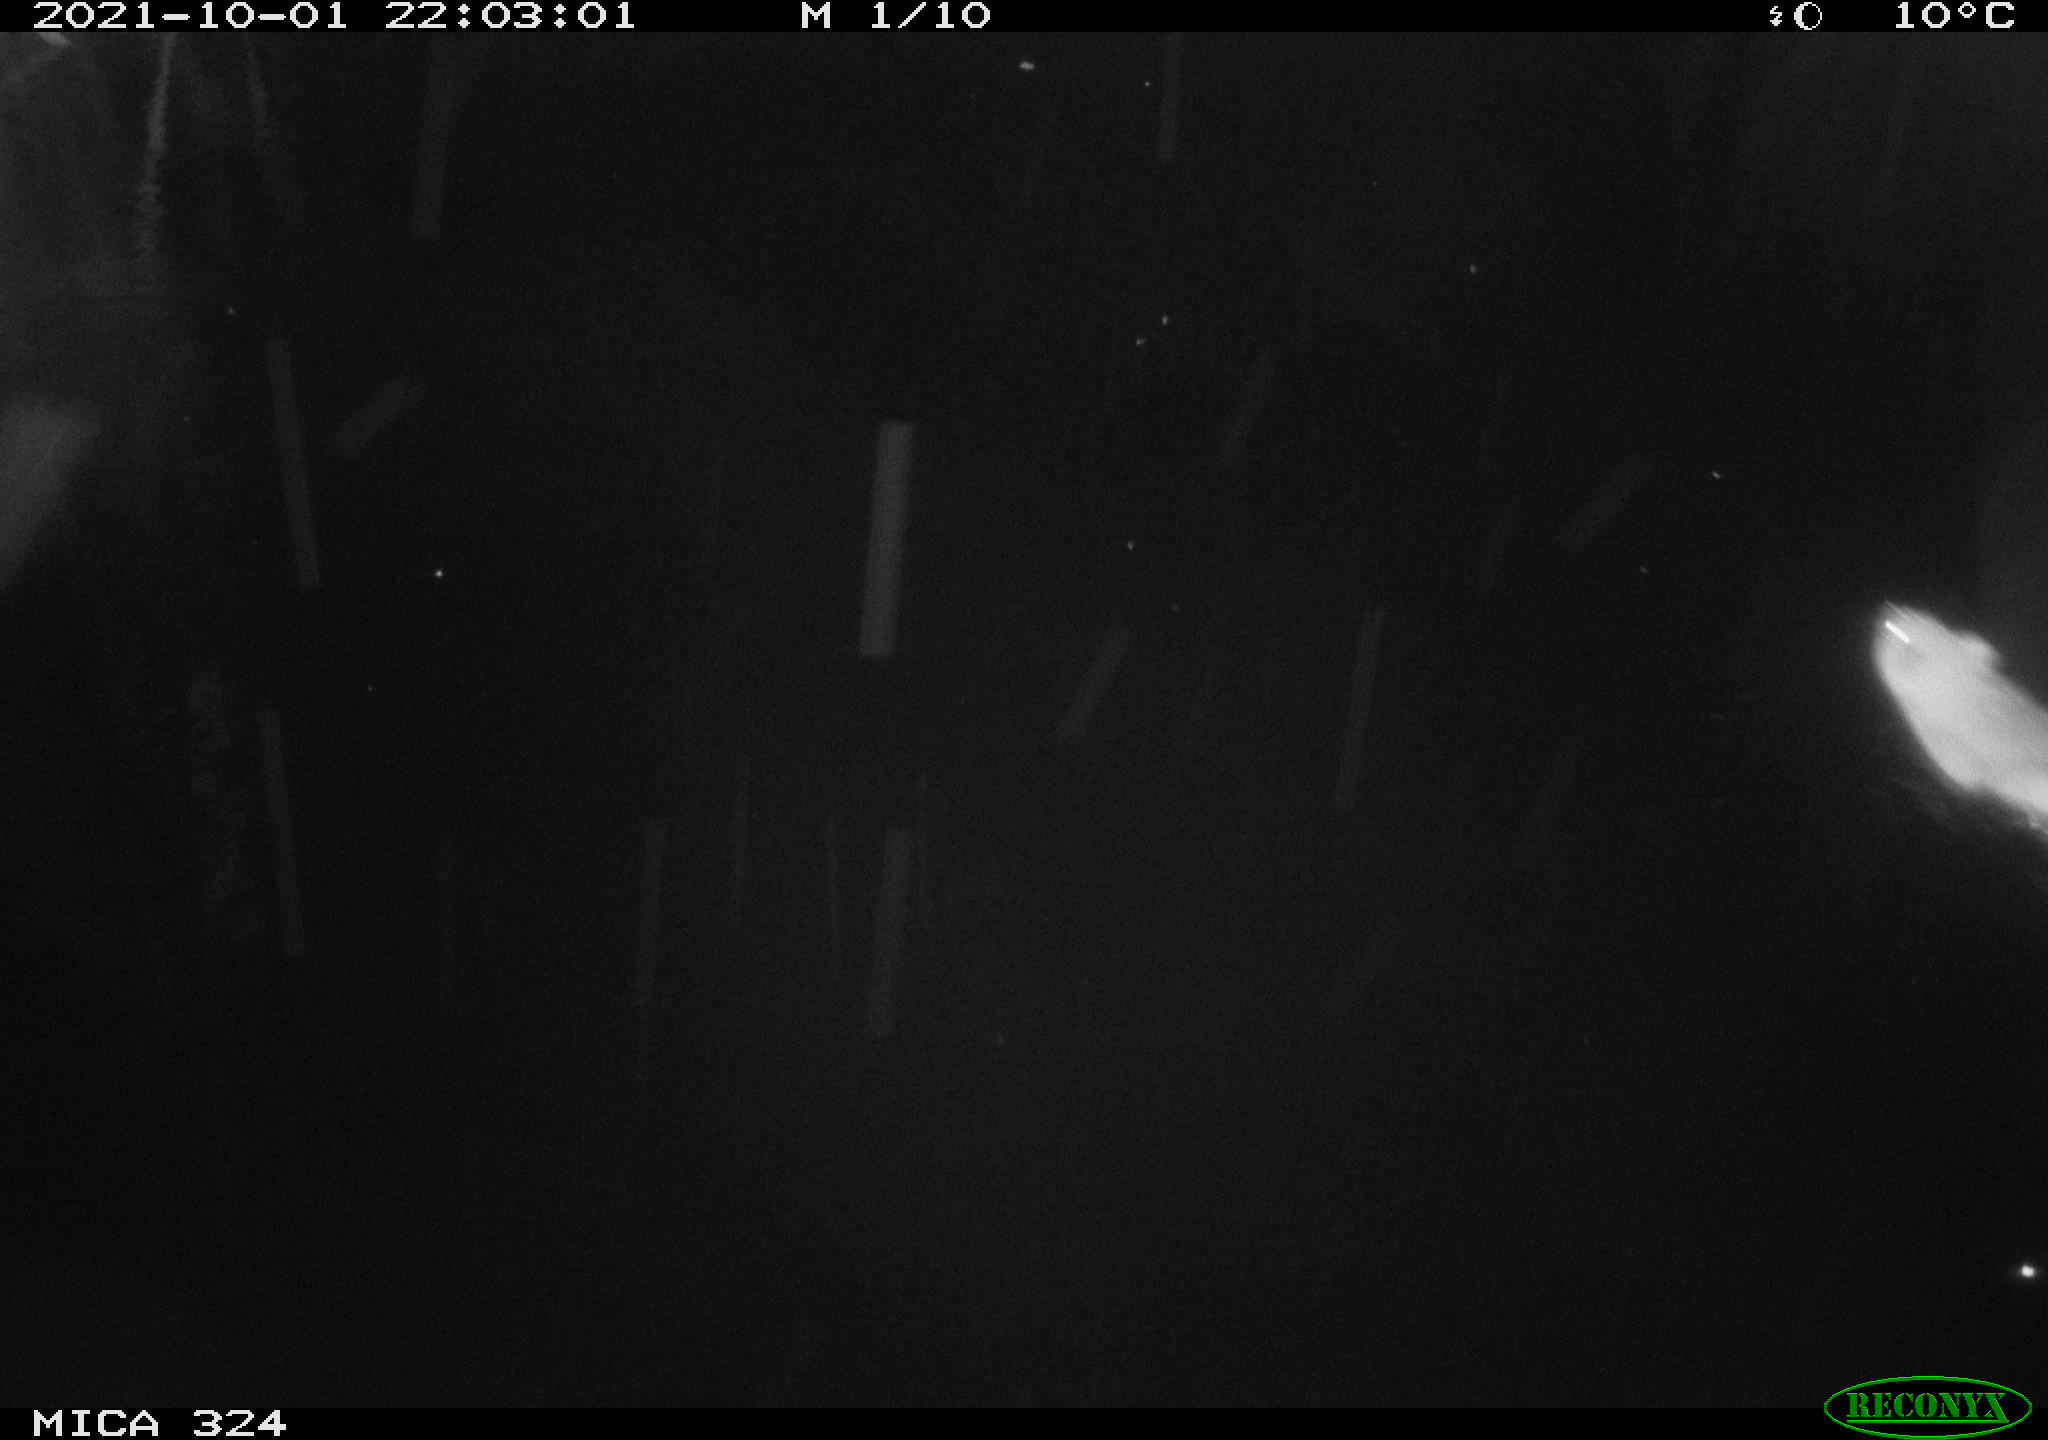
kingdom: Animalia
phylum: Chordata
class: Mammalia
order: Rodentia
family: Cricetidae
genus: Ondatra
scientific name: Ondatra zibethicus
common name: Muskrat
